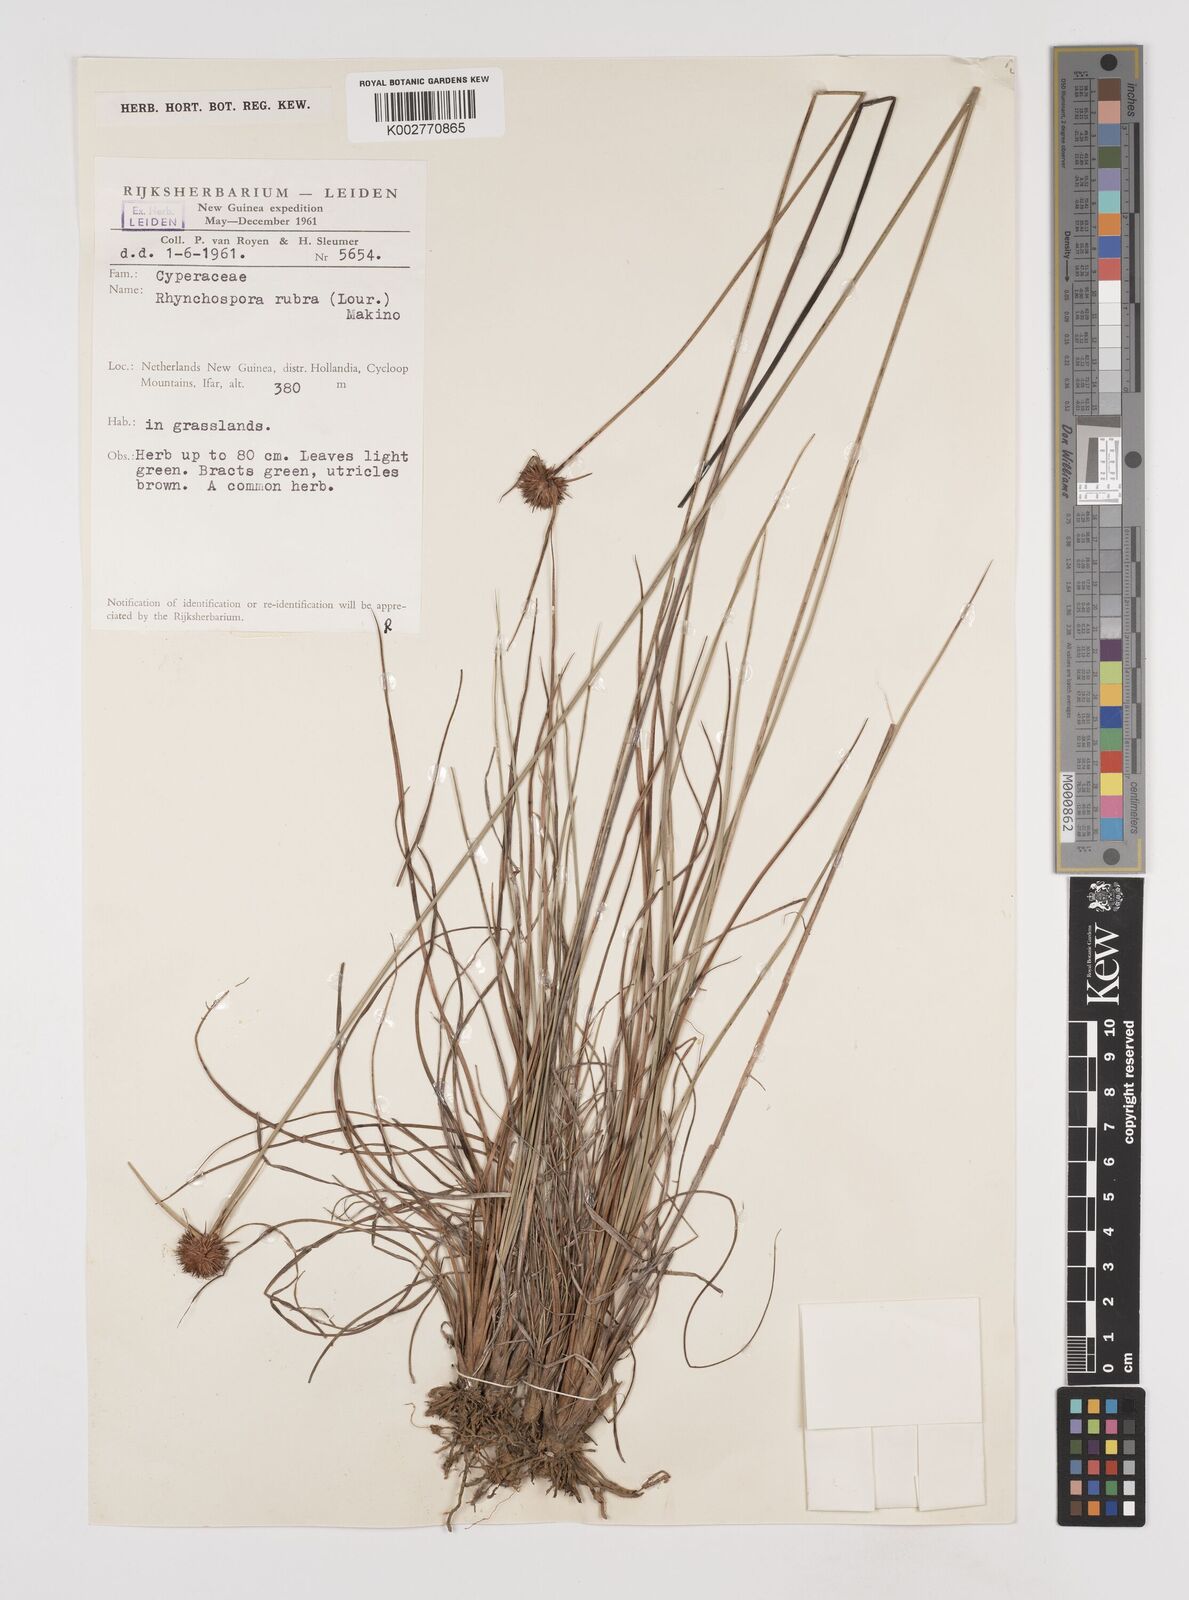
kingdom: Plantae
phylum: Tracheophyta
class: Liliopsida
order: Poales
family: Cyperaceae
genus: Rhynchospora
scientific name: Rhynchospora rubra
